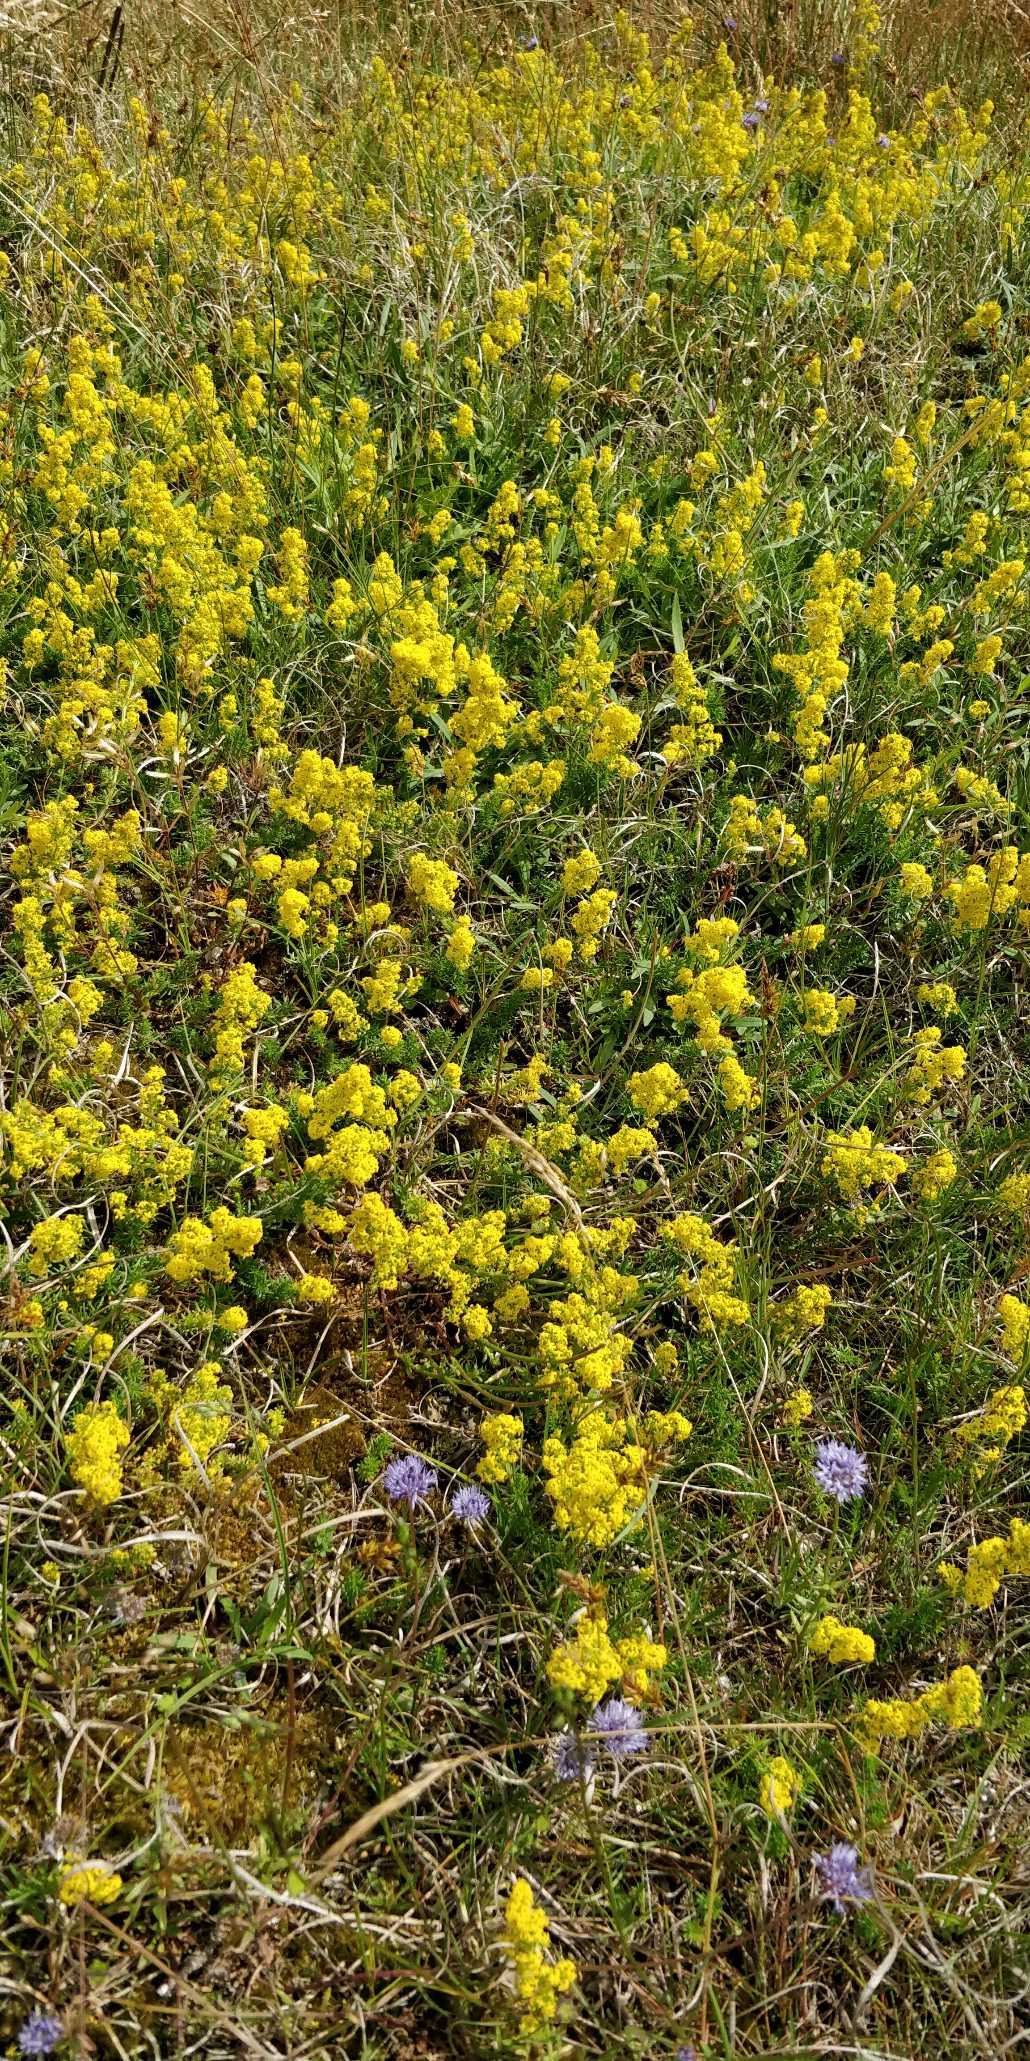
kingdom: Plantae
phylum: Tracheophyta
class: Magnoliopsida
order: Gentianales
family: Rubiaceae
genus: Galium
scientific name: Galium verum
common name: Gul snerre
